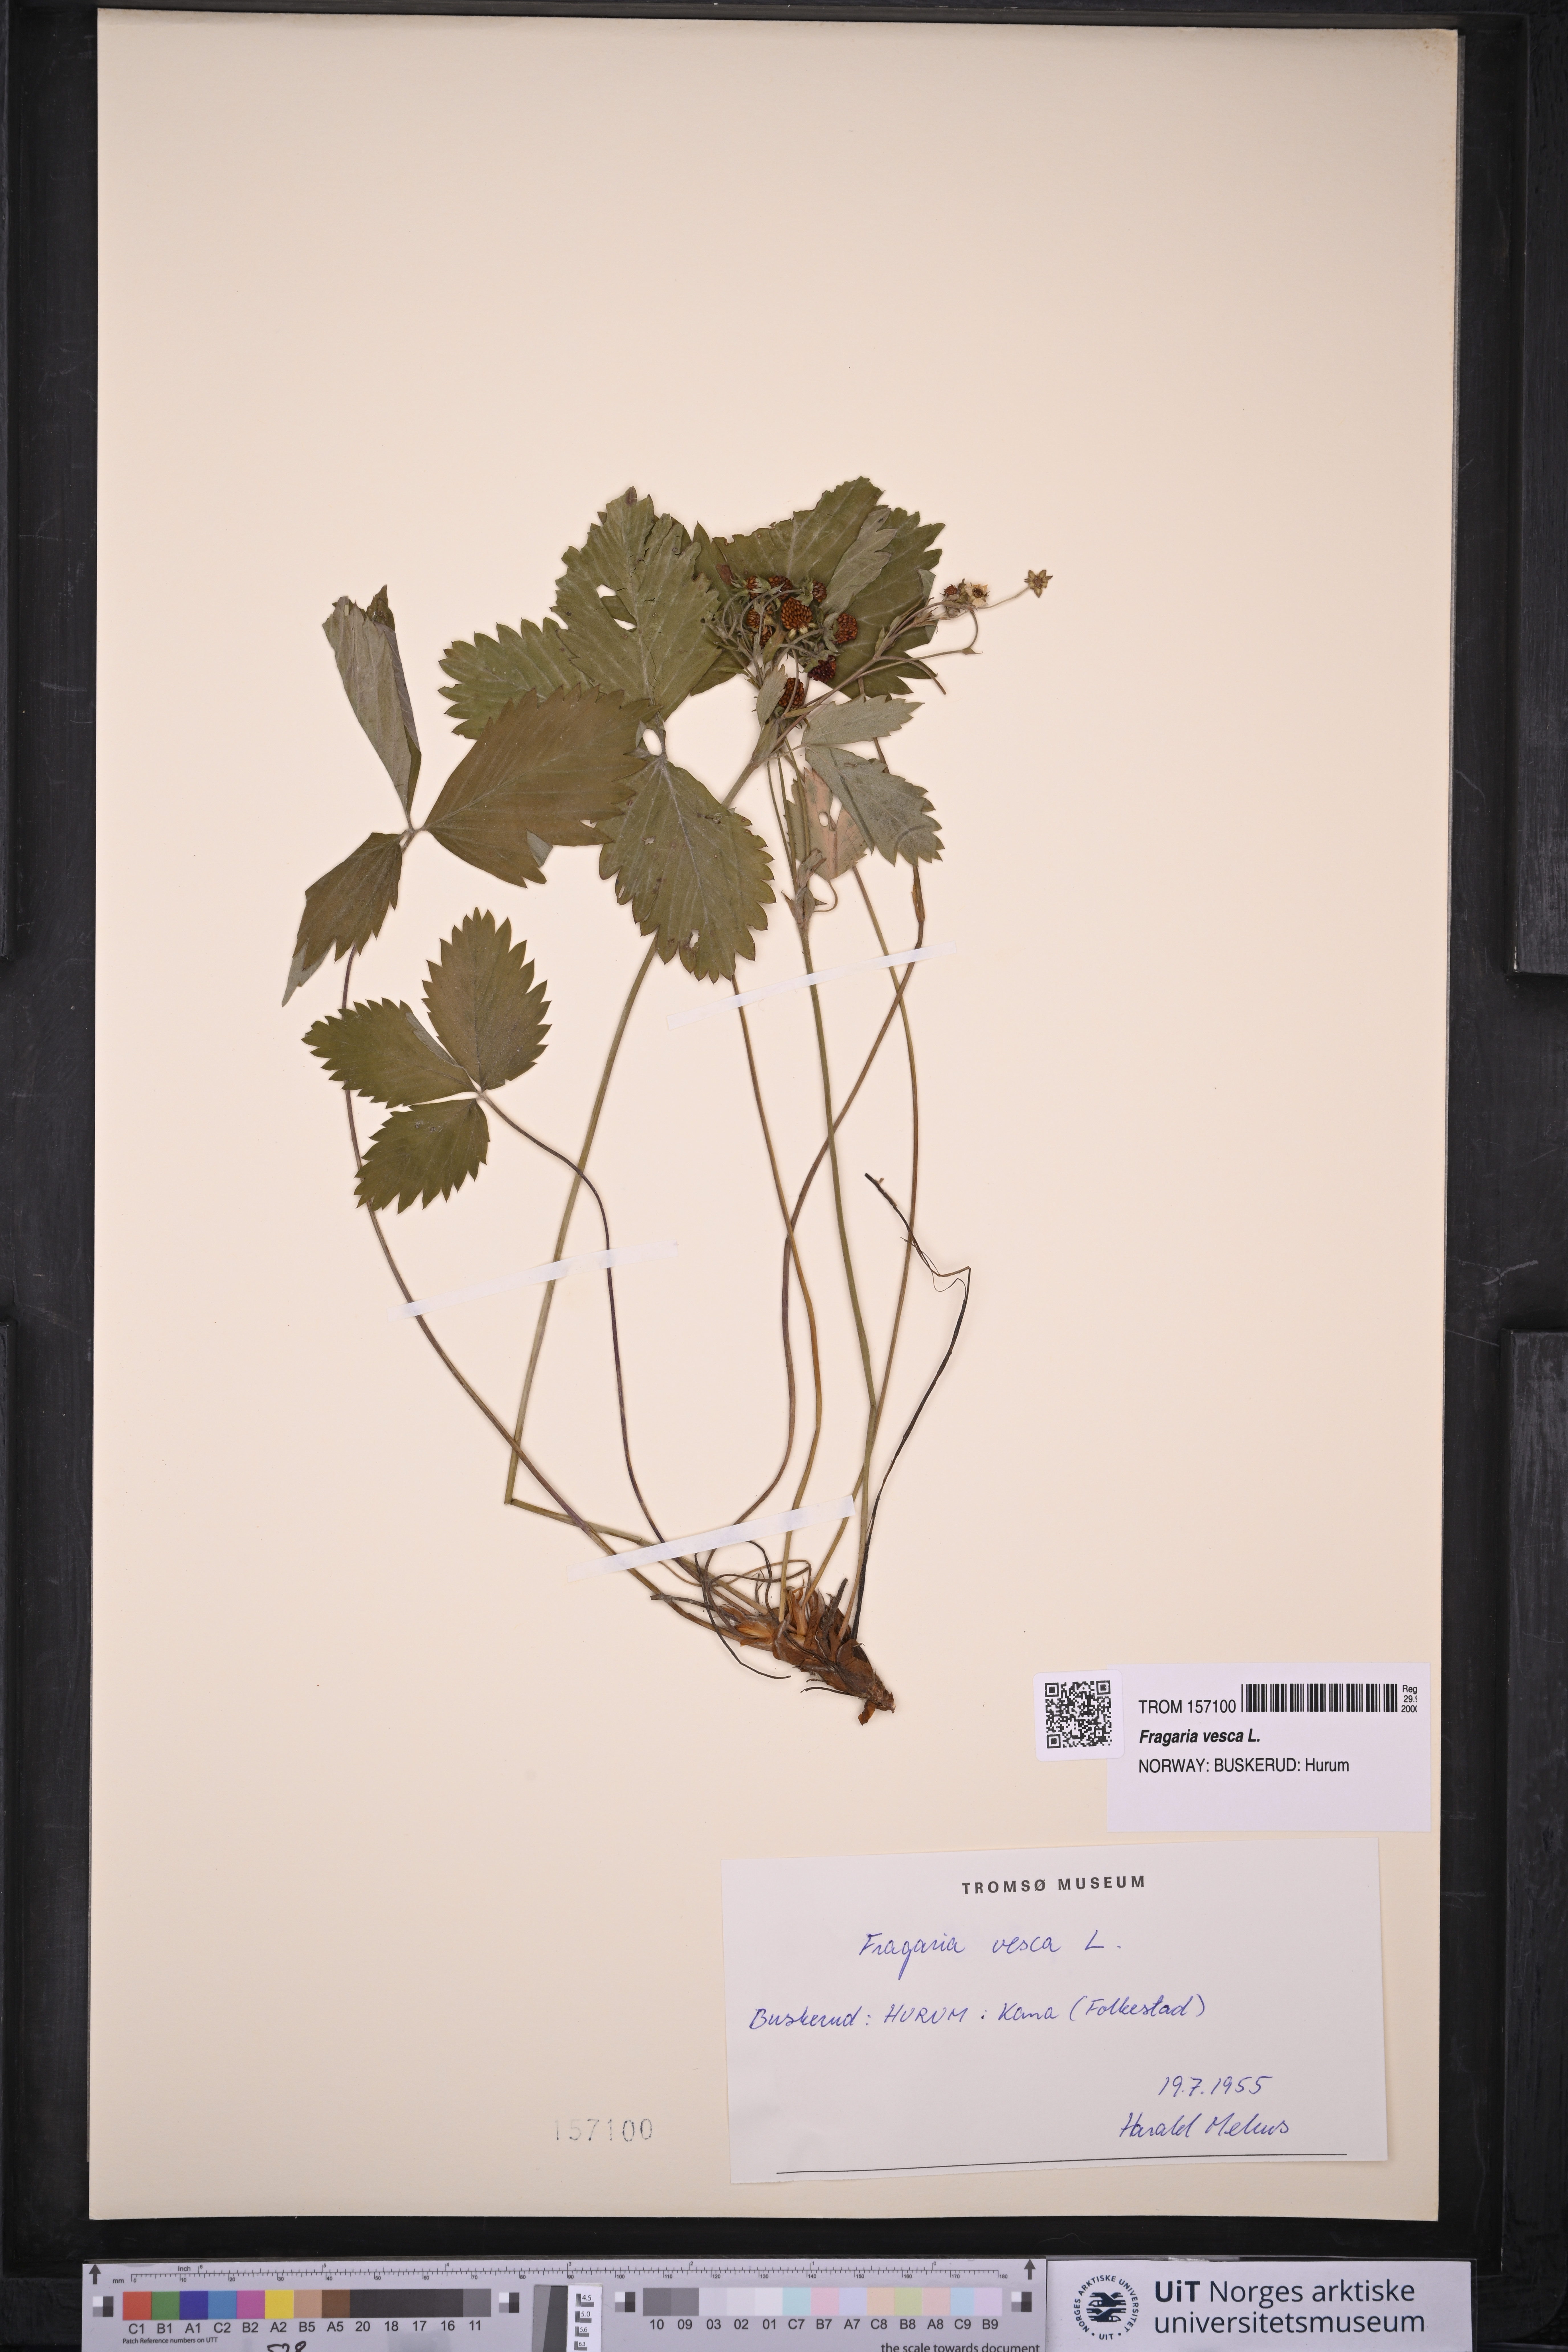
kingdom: Plantae
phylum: Tracheophyta
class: Magnoliopsida
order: Rosales
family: Rosaceae
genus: Fragaria
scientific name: Fragaria vesca
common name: Wild strawberry
